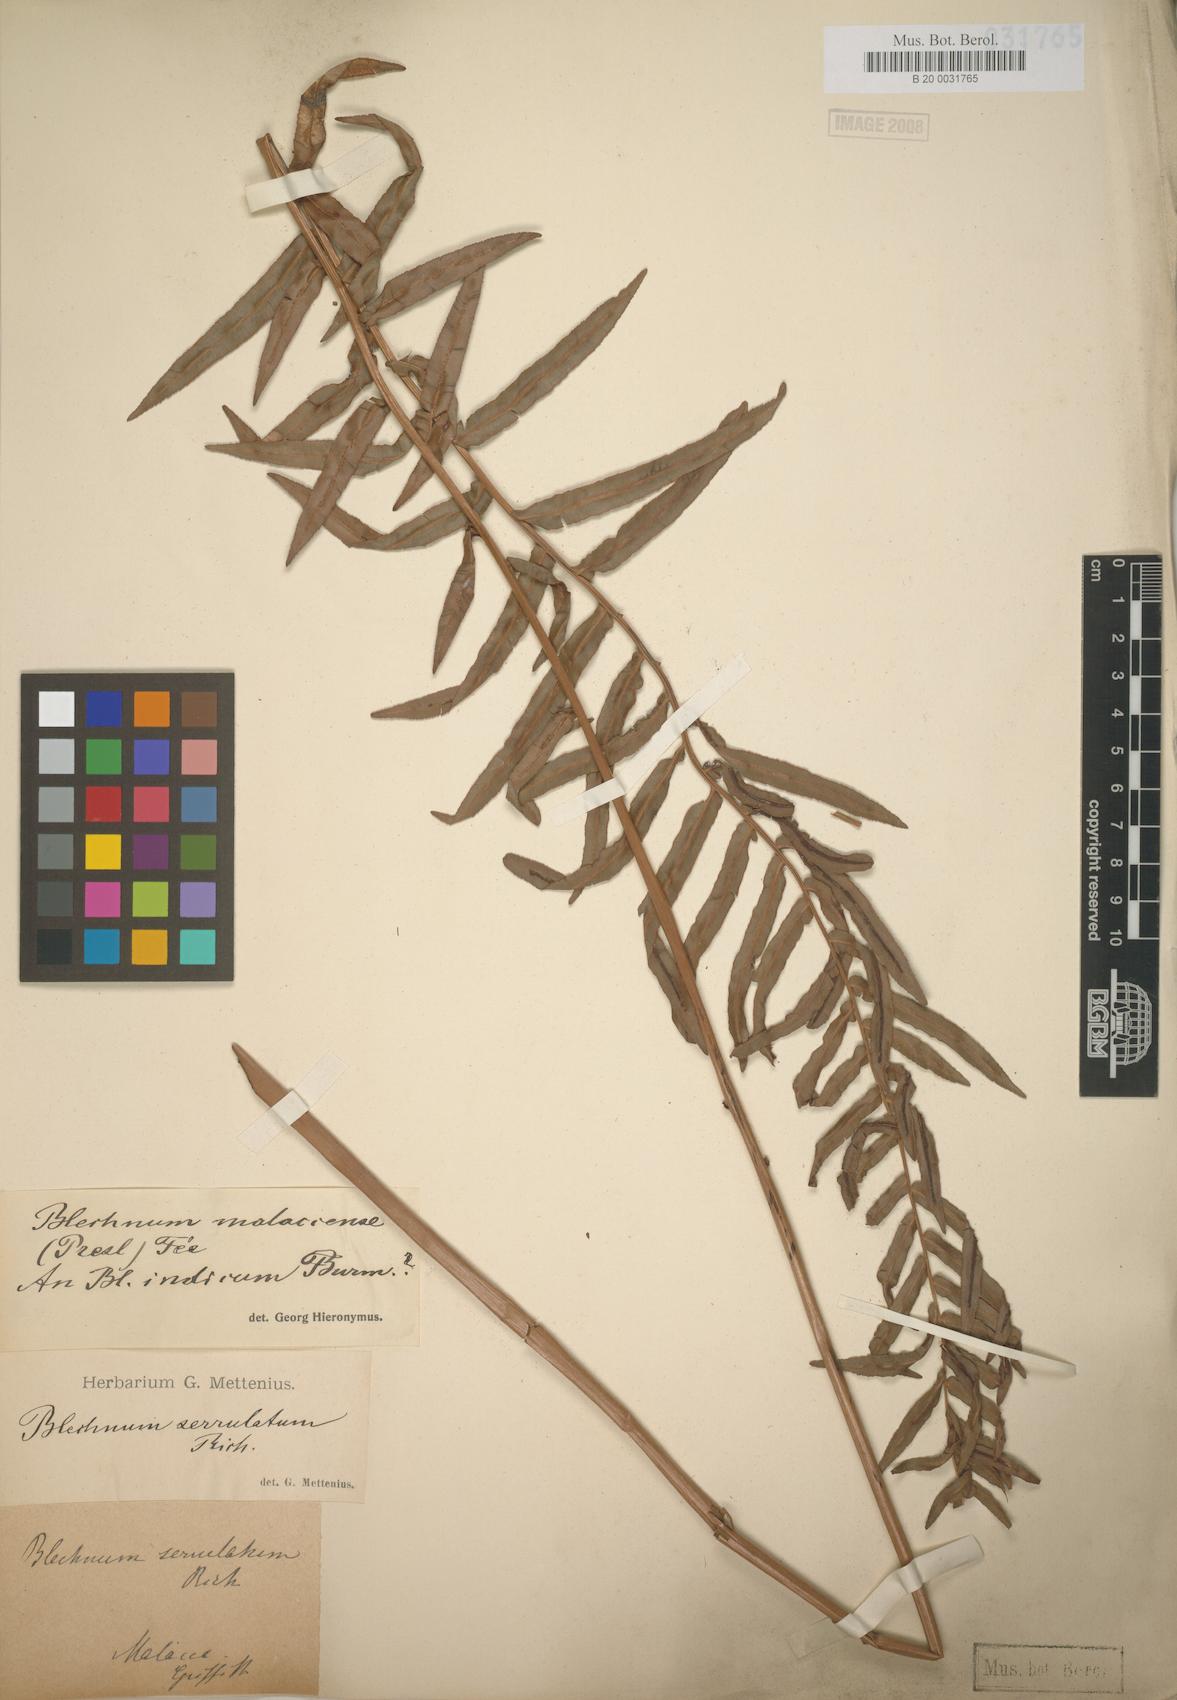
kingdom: Plantae
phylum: Tracheophyta
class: Polypodiopsida
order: Polypodiales
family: Blechnaceae
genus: Telmatoblechnum
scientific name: Telmatoblechnum indicum
